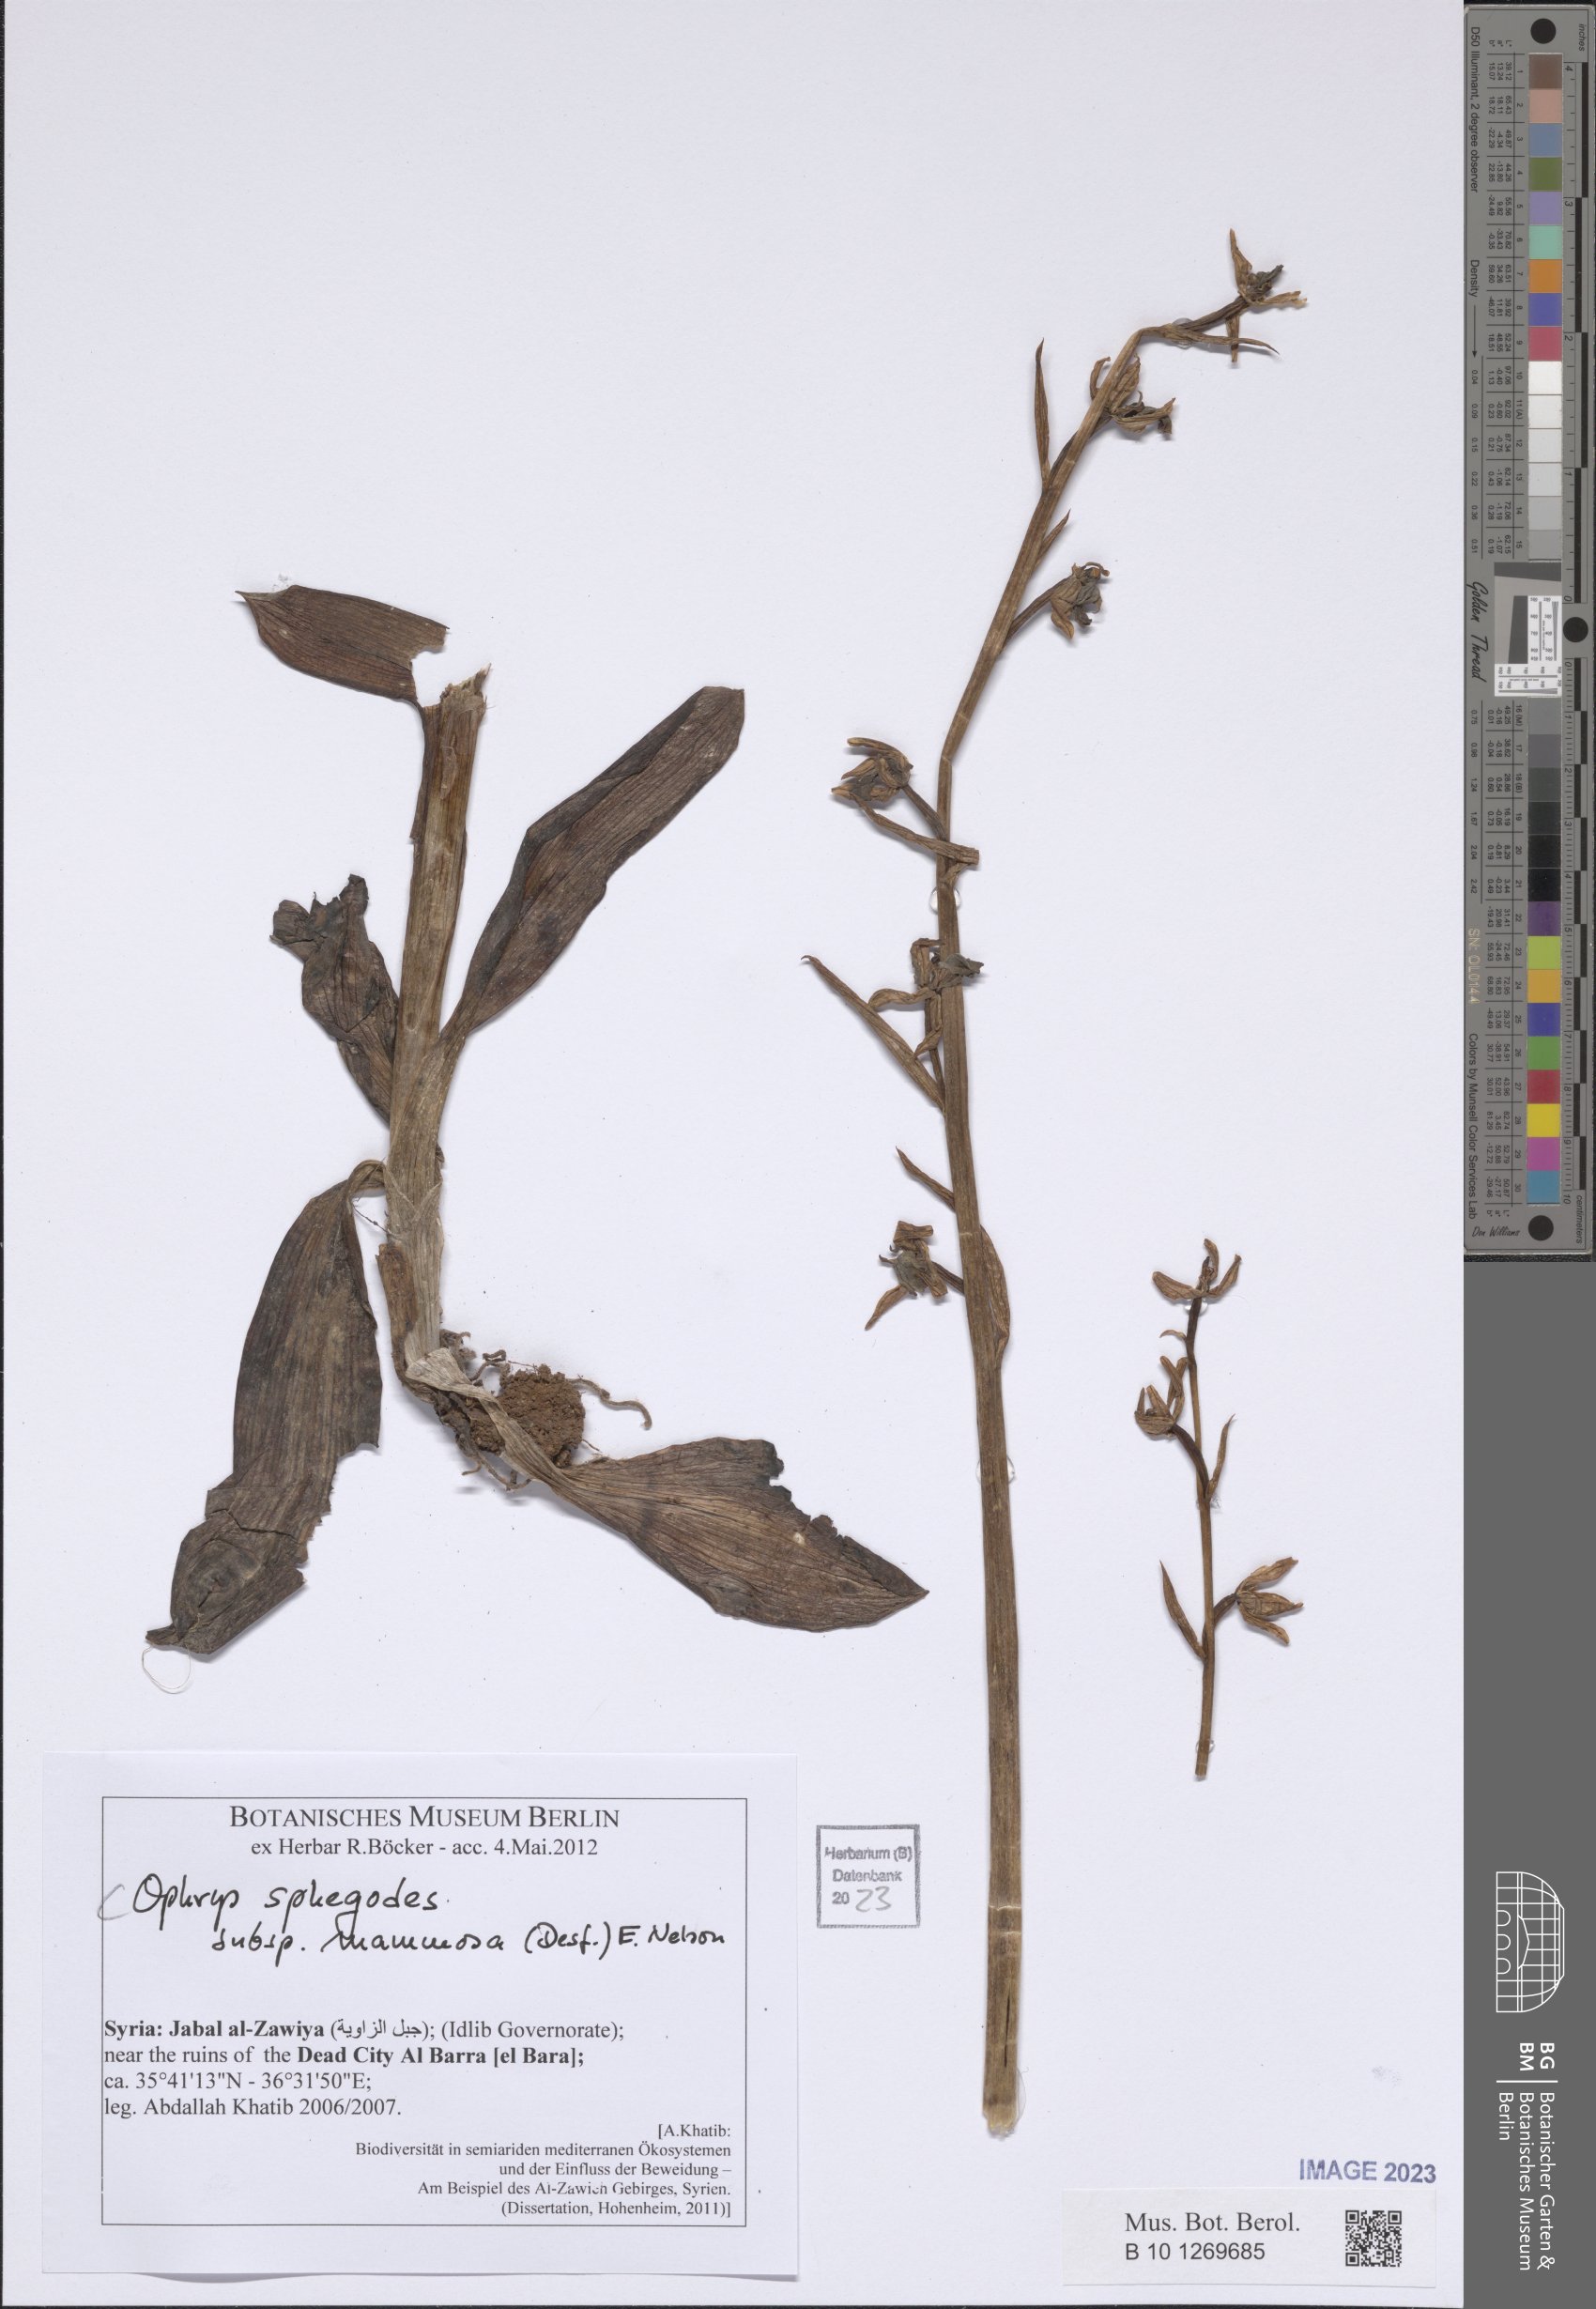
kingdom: Plantae
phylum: Tracheophyta
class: Liliopsida
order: Asparagales
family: Orchidaceae
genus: Ophrys
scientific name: Ophrys sphegodes
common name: Early spider-orchid
